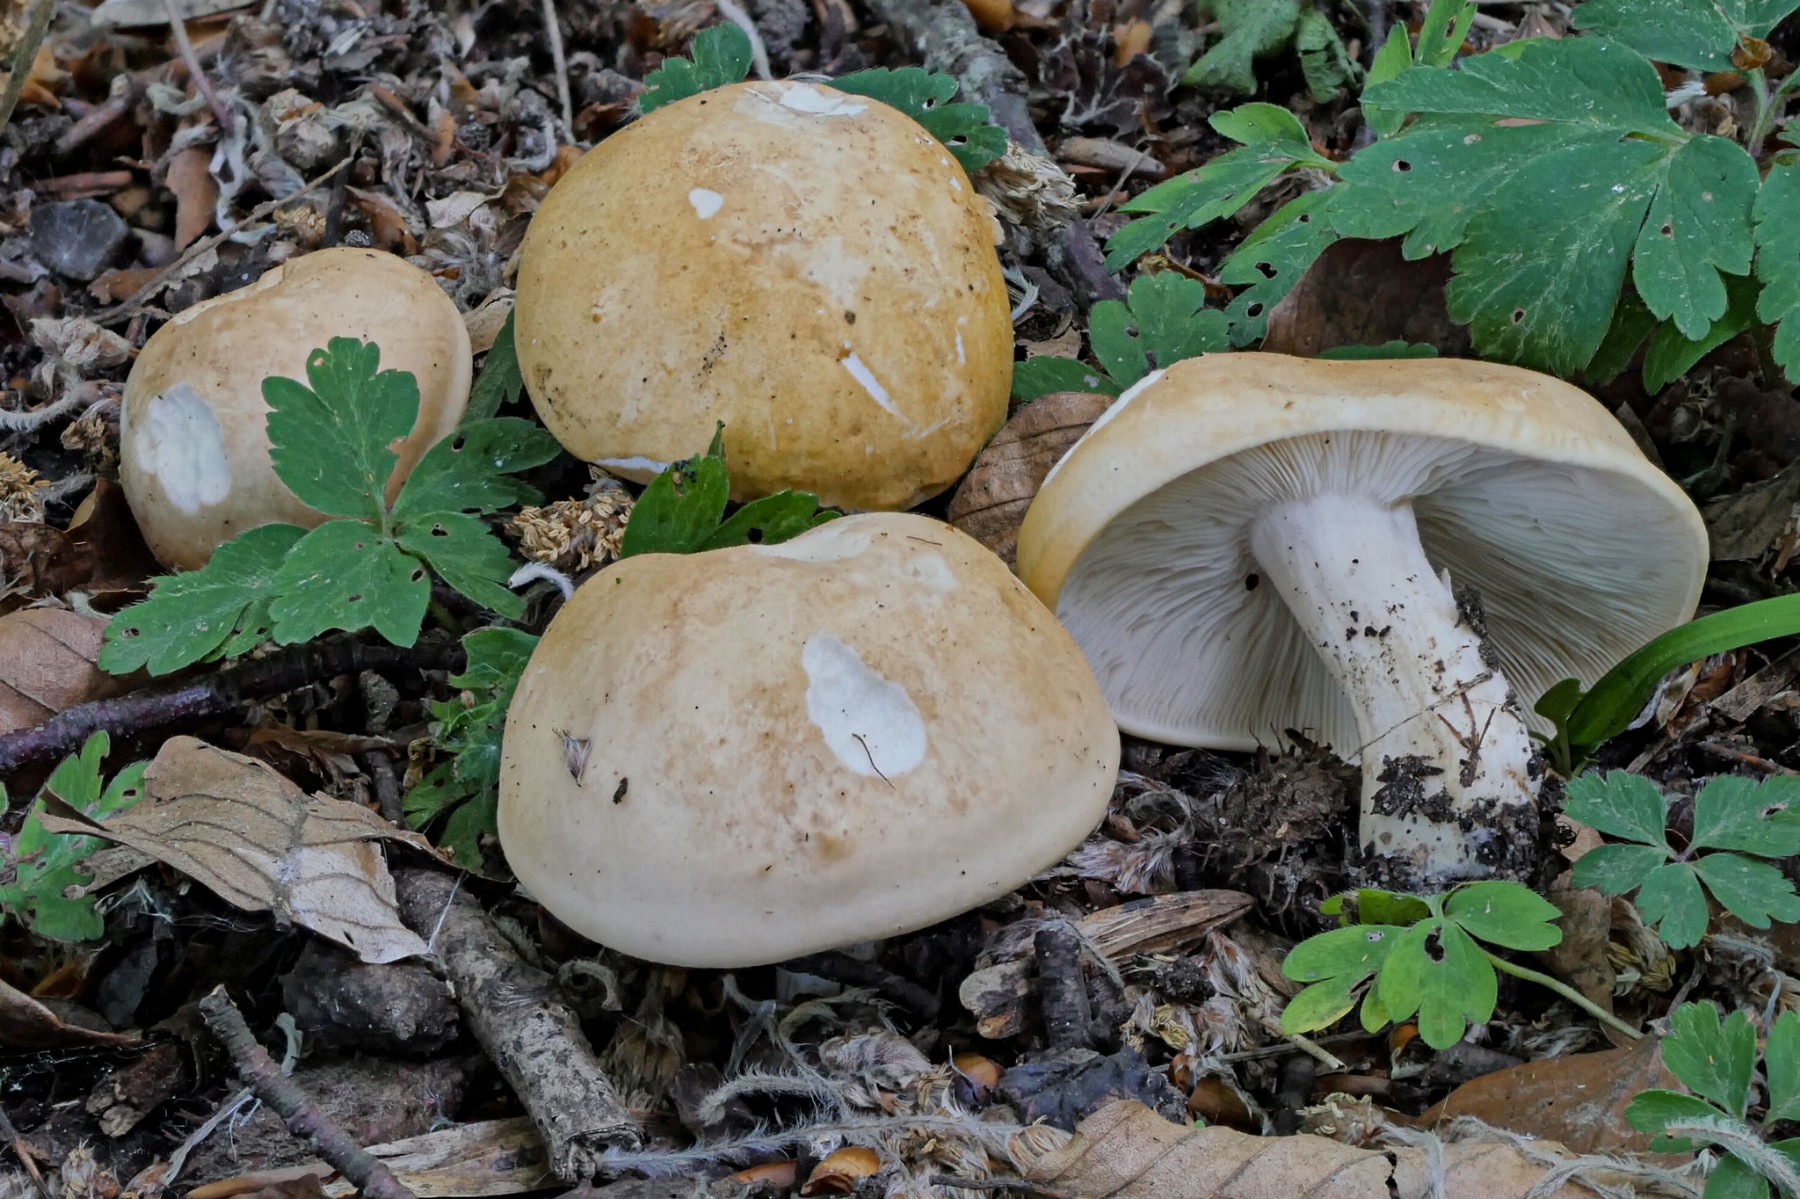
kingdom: Fungi
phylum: Basidiomycota
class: Agaricomycetes
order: Agaricales
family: Lyophyllaceae
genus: Calocybe
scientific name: Calocybe gambosa
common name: vårmusseron
